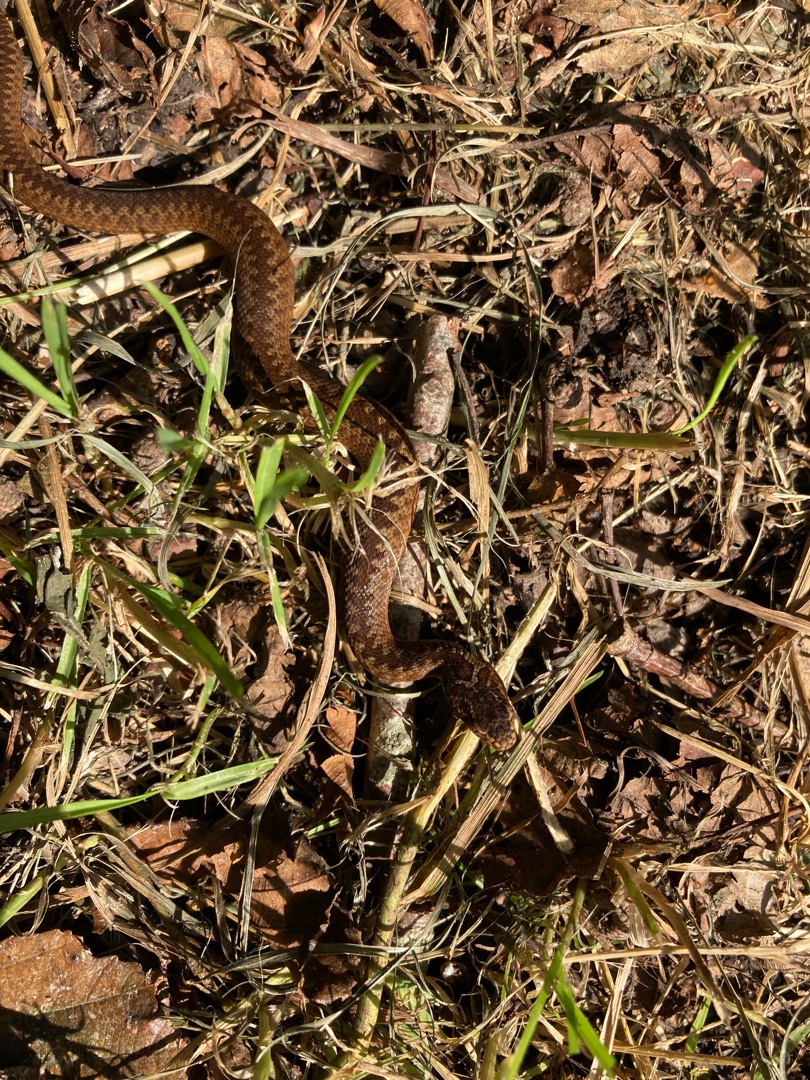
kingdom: Animalia
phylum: Chordata
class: Squamata
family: Viperidae
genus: Vipera
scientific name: Vipera berus
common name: Hugorm
